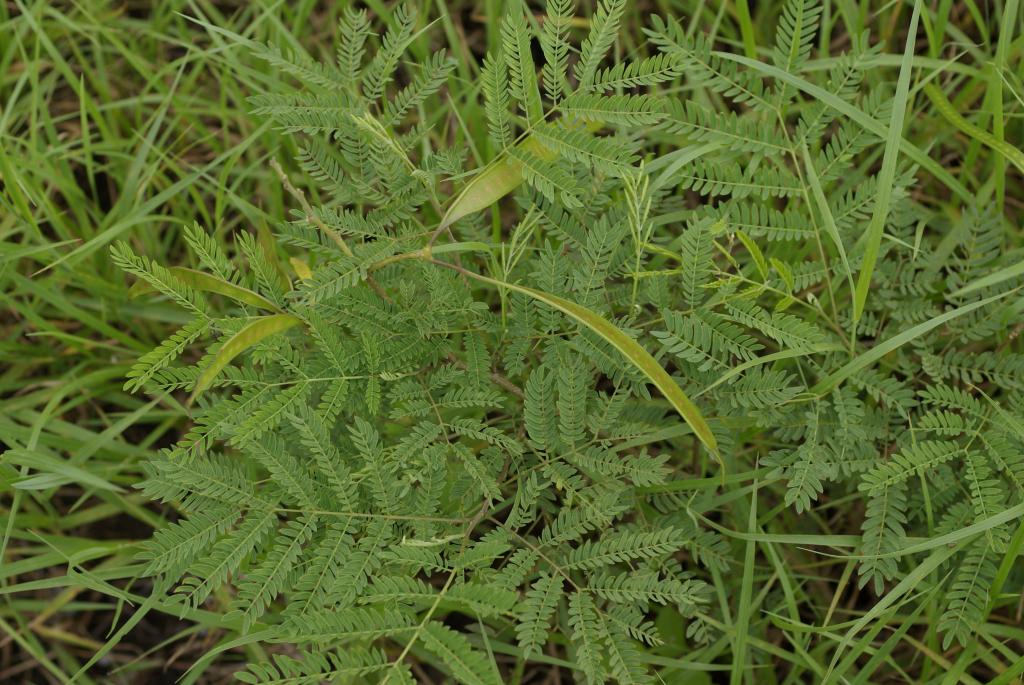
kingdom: Plantae
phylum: Tracheophyta
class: Magnoliopsida
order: Fabales
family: Fabaceae
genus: Leucaena
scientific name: Leucaena leucocephala
